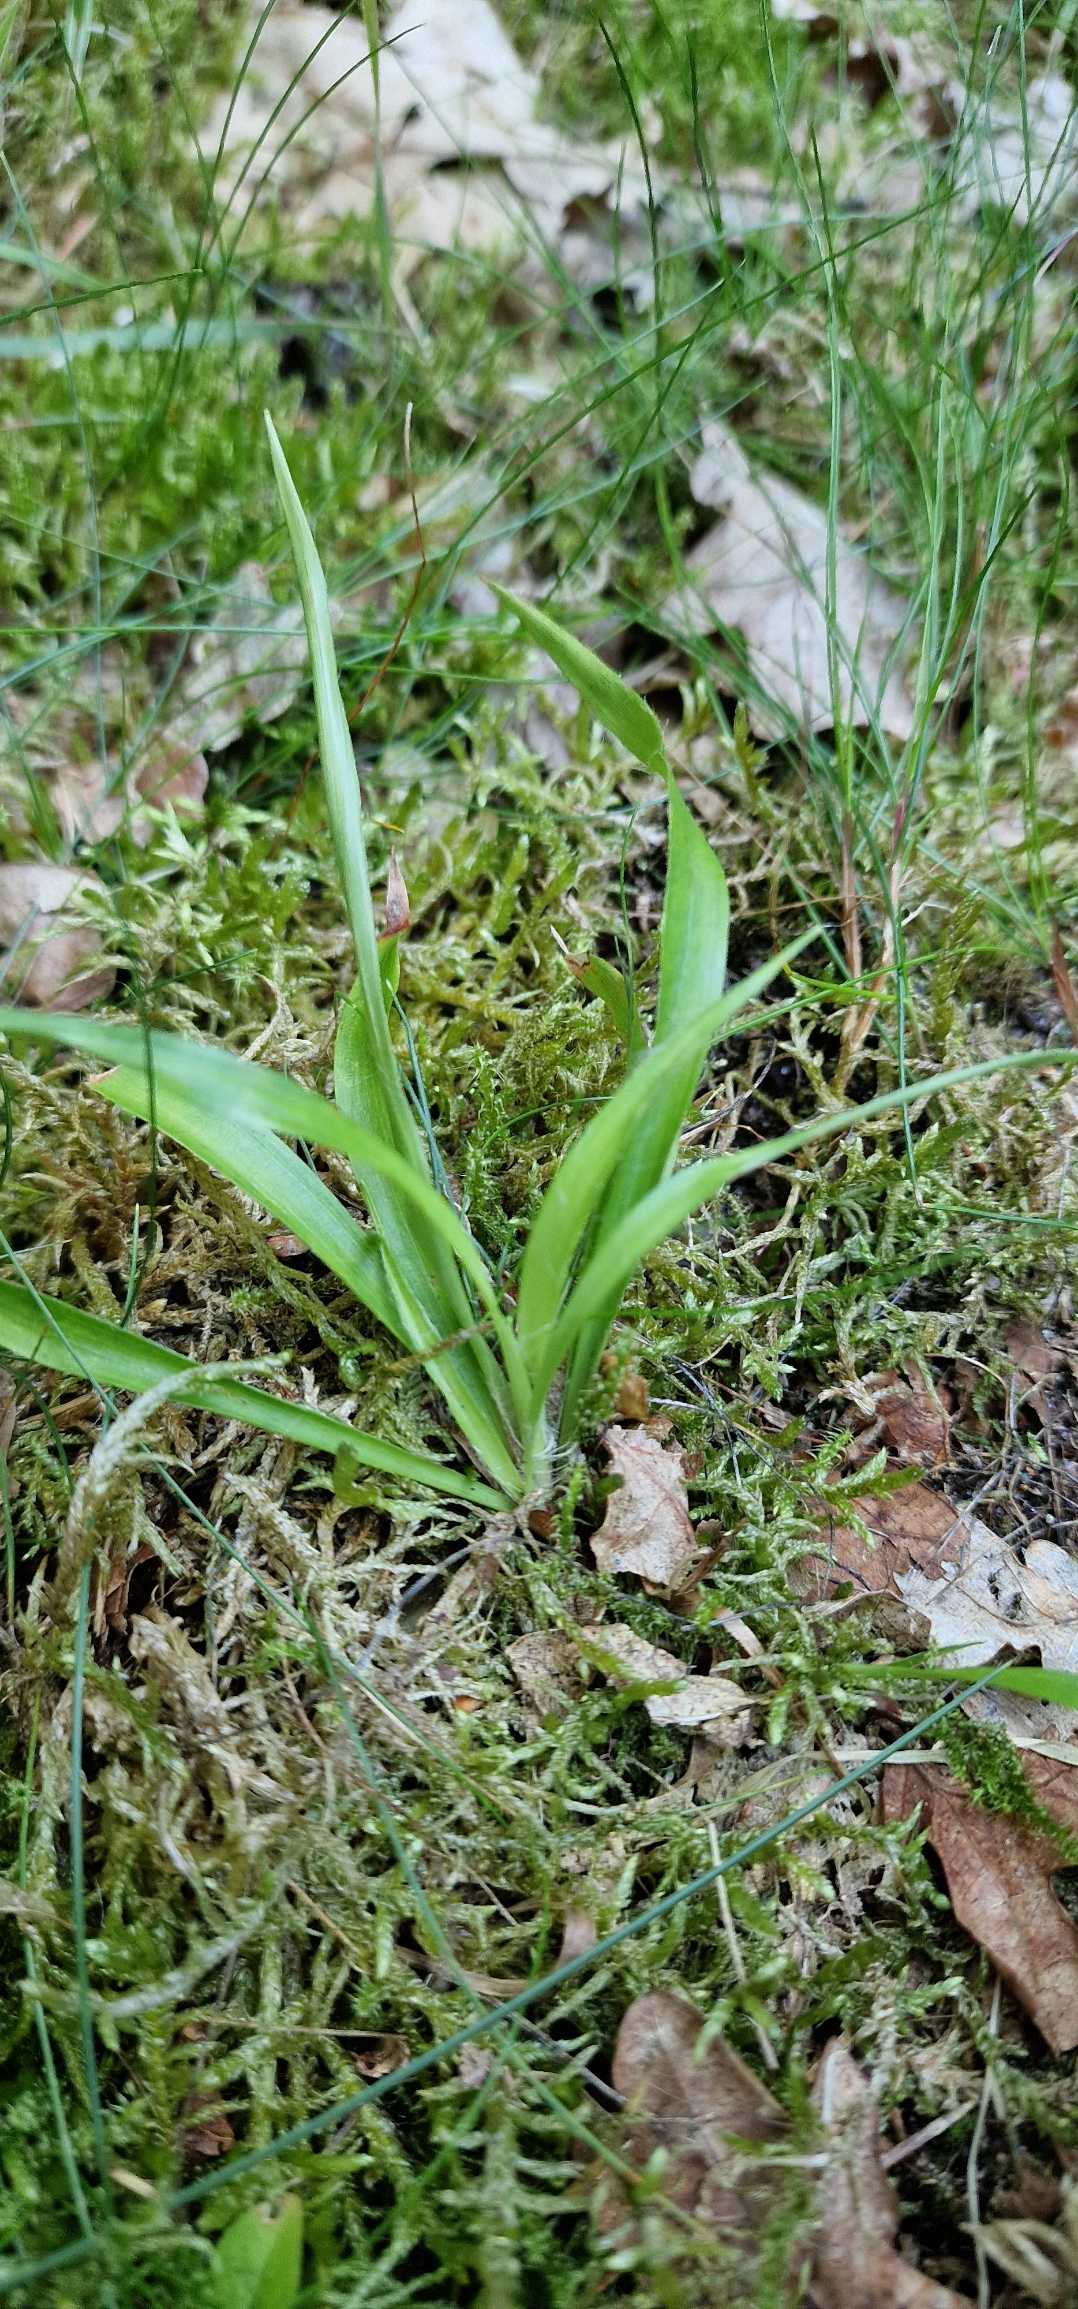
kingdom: Plantae
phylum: Tracheophyta
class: Liliopsida
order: Poales
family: Juncaceae
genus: Luzula
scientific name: Luzula pilosa
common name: Håret frytle
